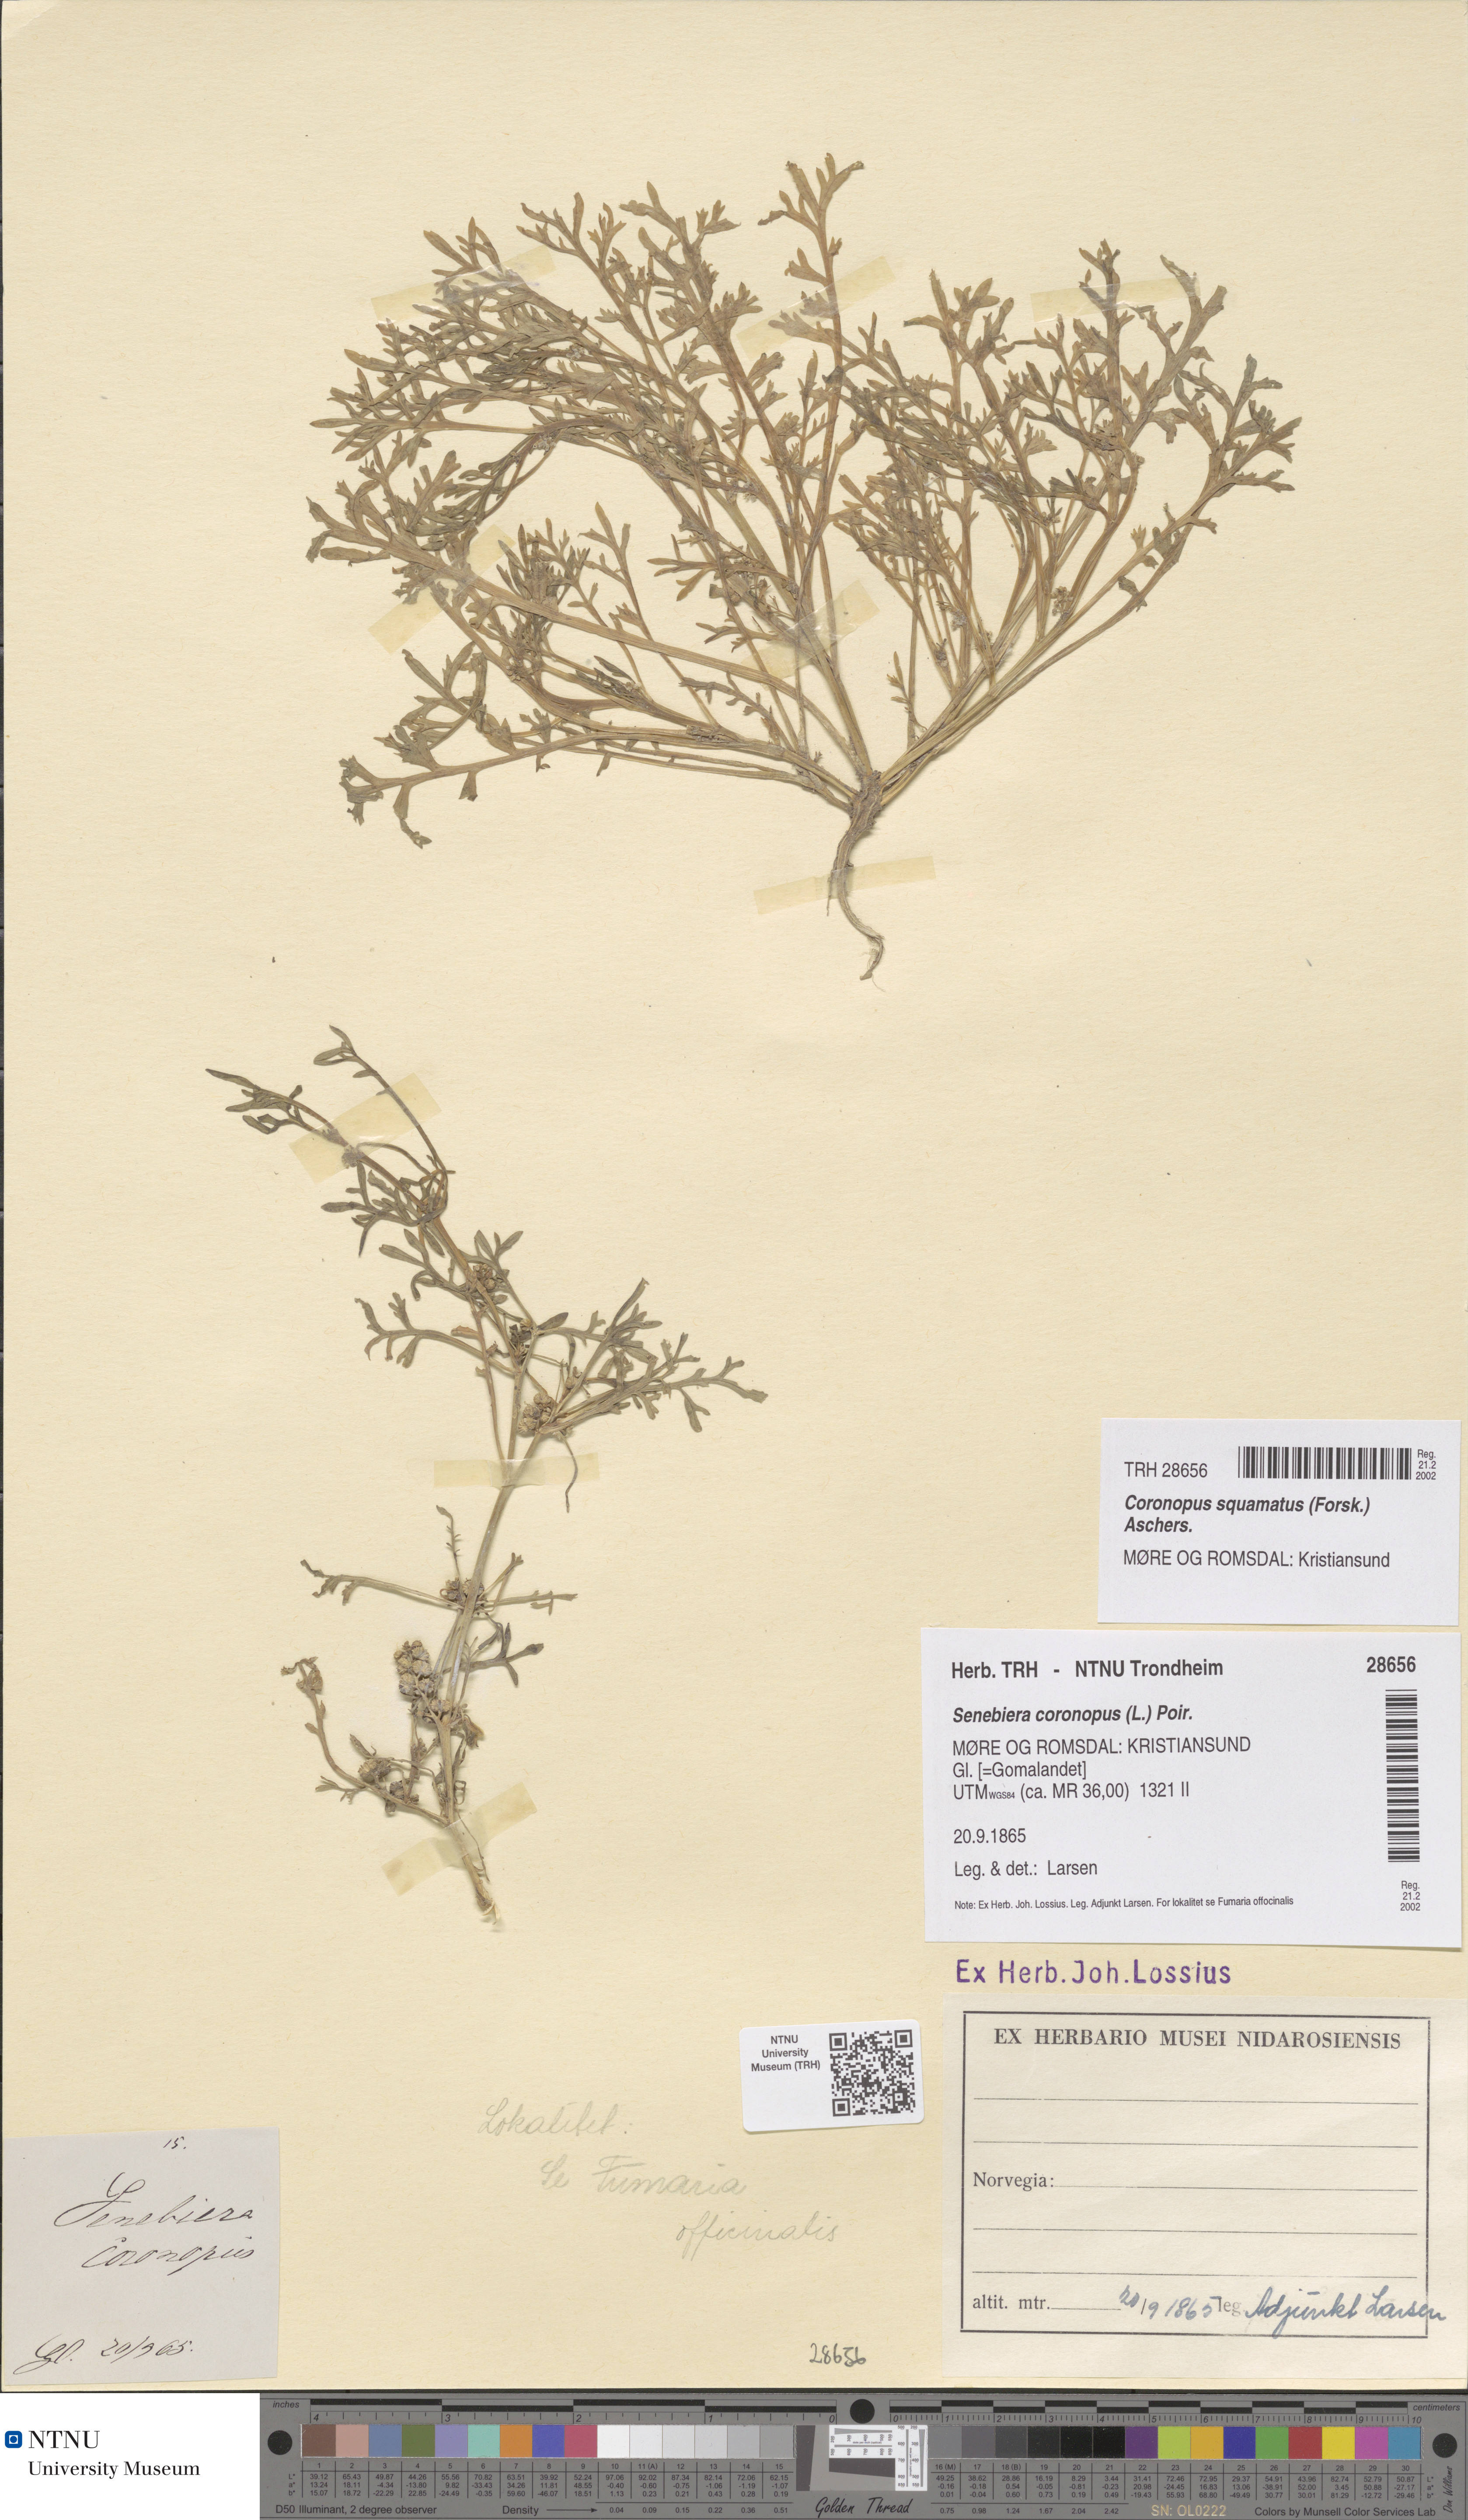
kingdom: Plantae
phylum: Tracheophyta
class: Magnoliopsida
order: Brassicales
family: Brassicaceae
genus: Lepidium
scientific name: Lepidium coronopus
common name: Greater swinecress
